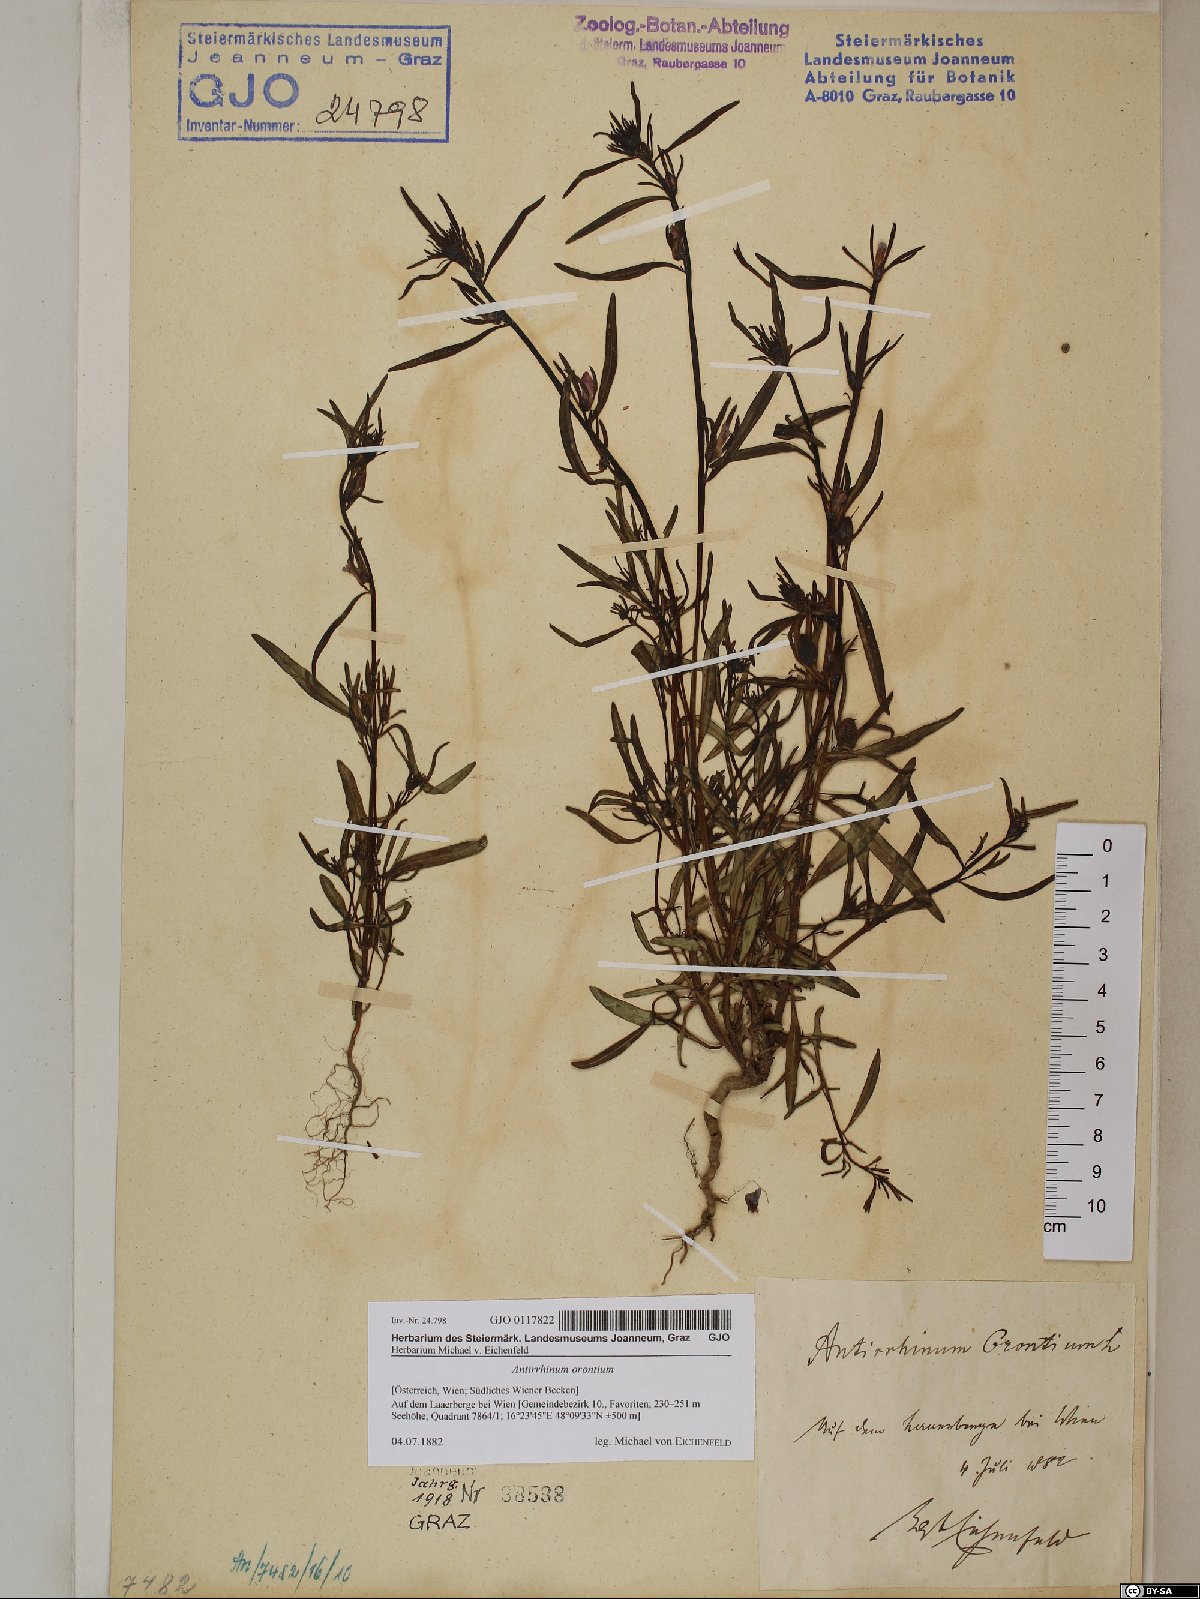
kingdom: Plantae
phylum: Tracheophyta
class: Magnoliopsida
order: Lamiales
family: Plantaginaceae
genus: Misopates
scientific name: Misopates orontium
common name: Weasel's-snout
